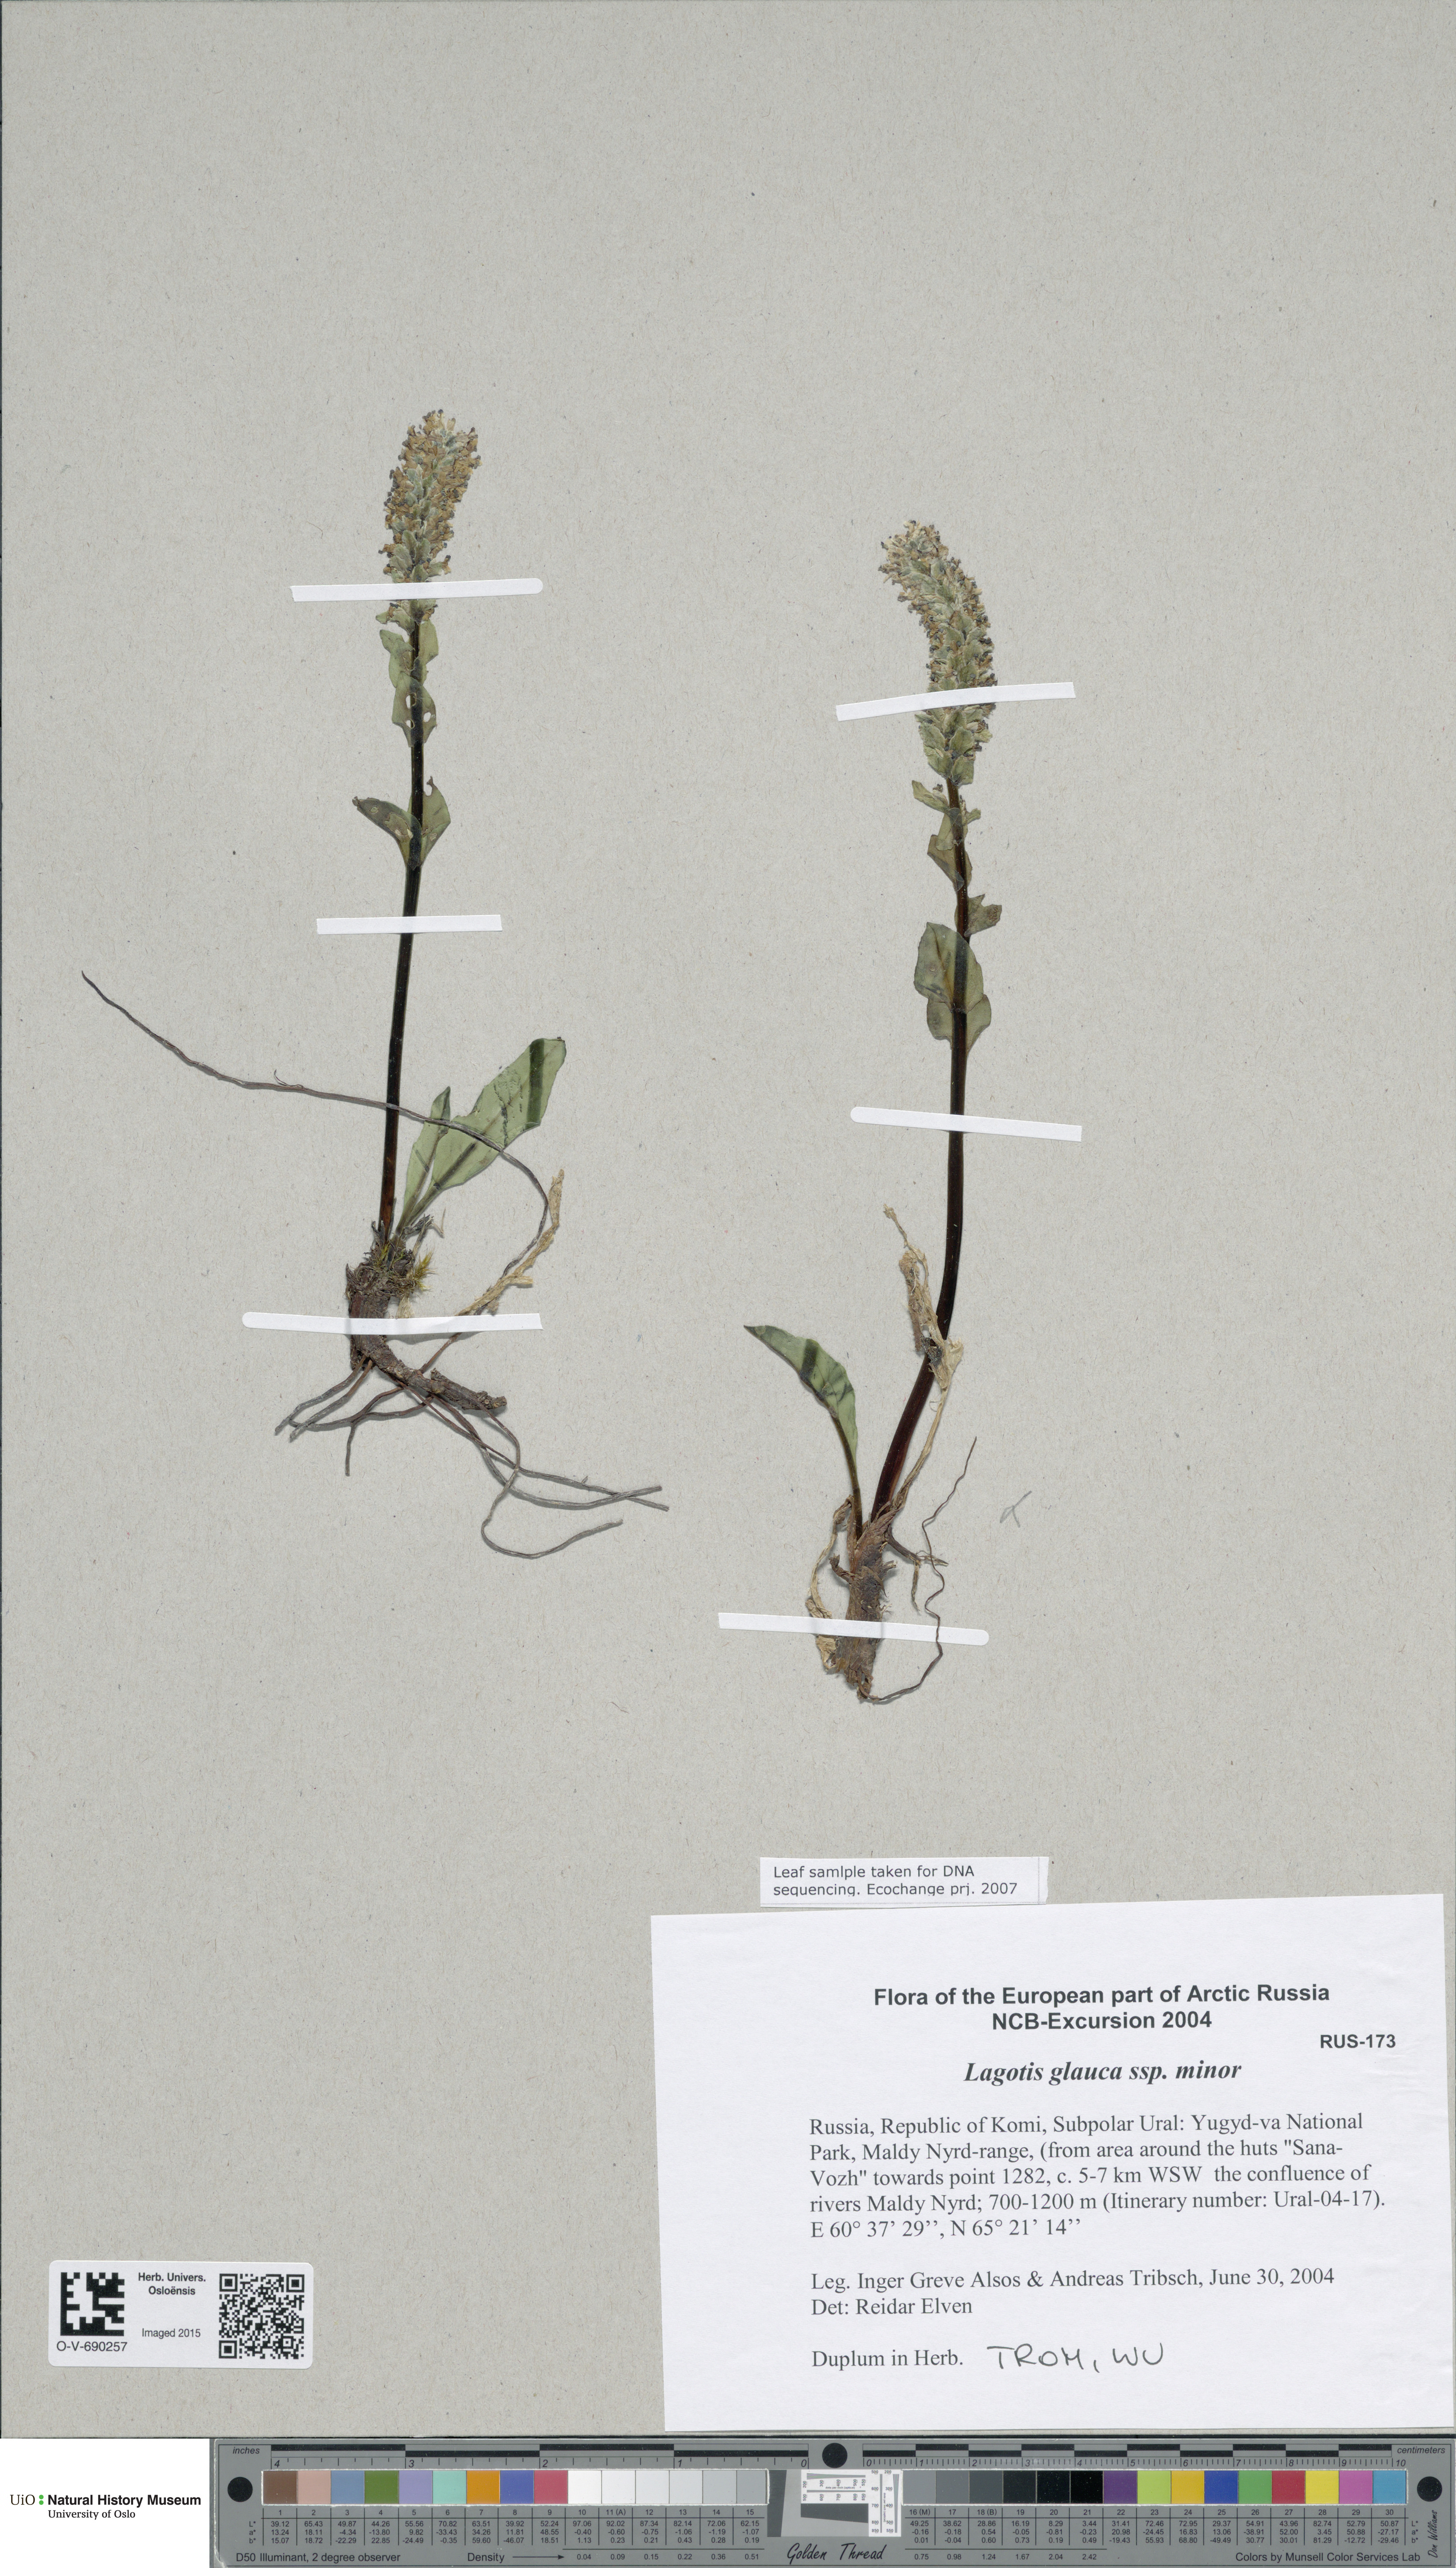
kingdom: Plantae
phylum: Tracheophyta
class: Magnoliopsida
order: Lamiales
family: Plantaginaceae
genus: Lagotis
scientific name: Lagotis glauca
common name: Glaucous weaselsnout
